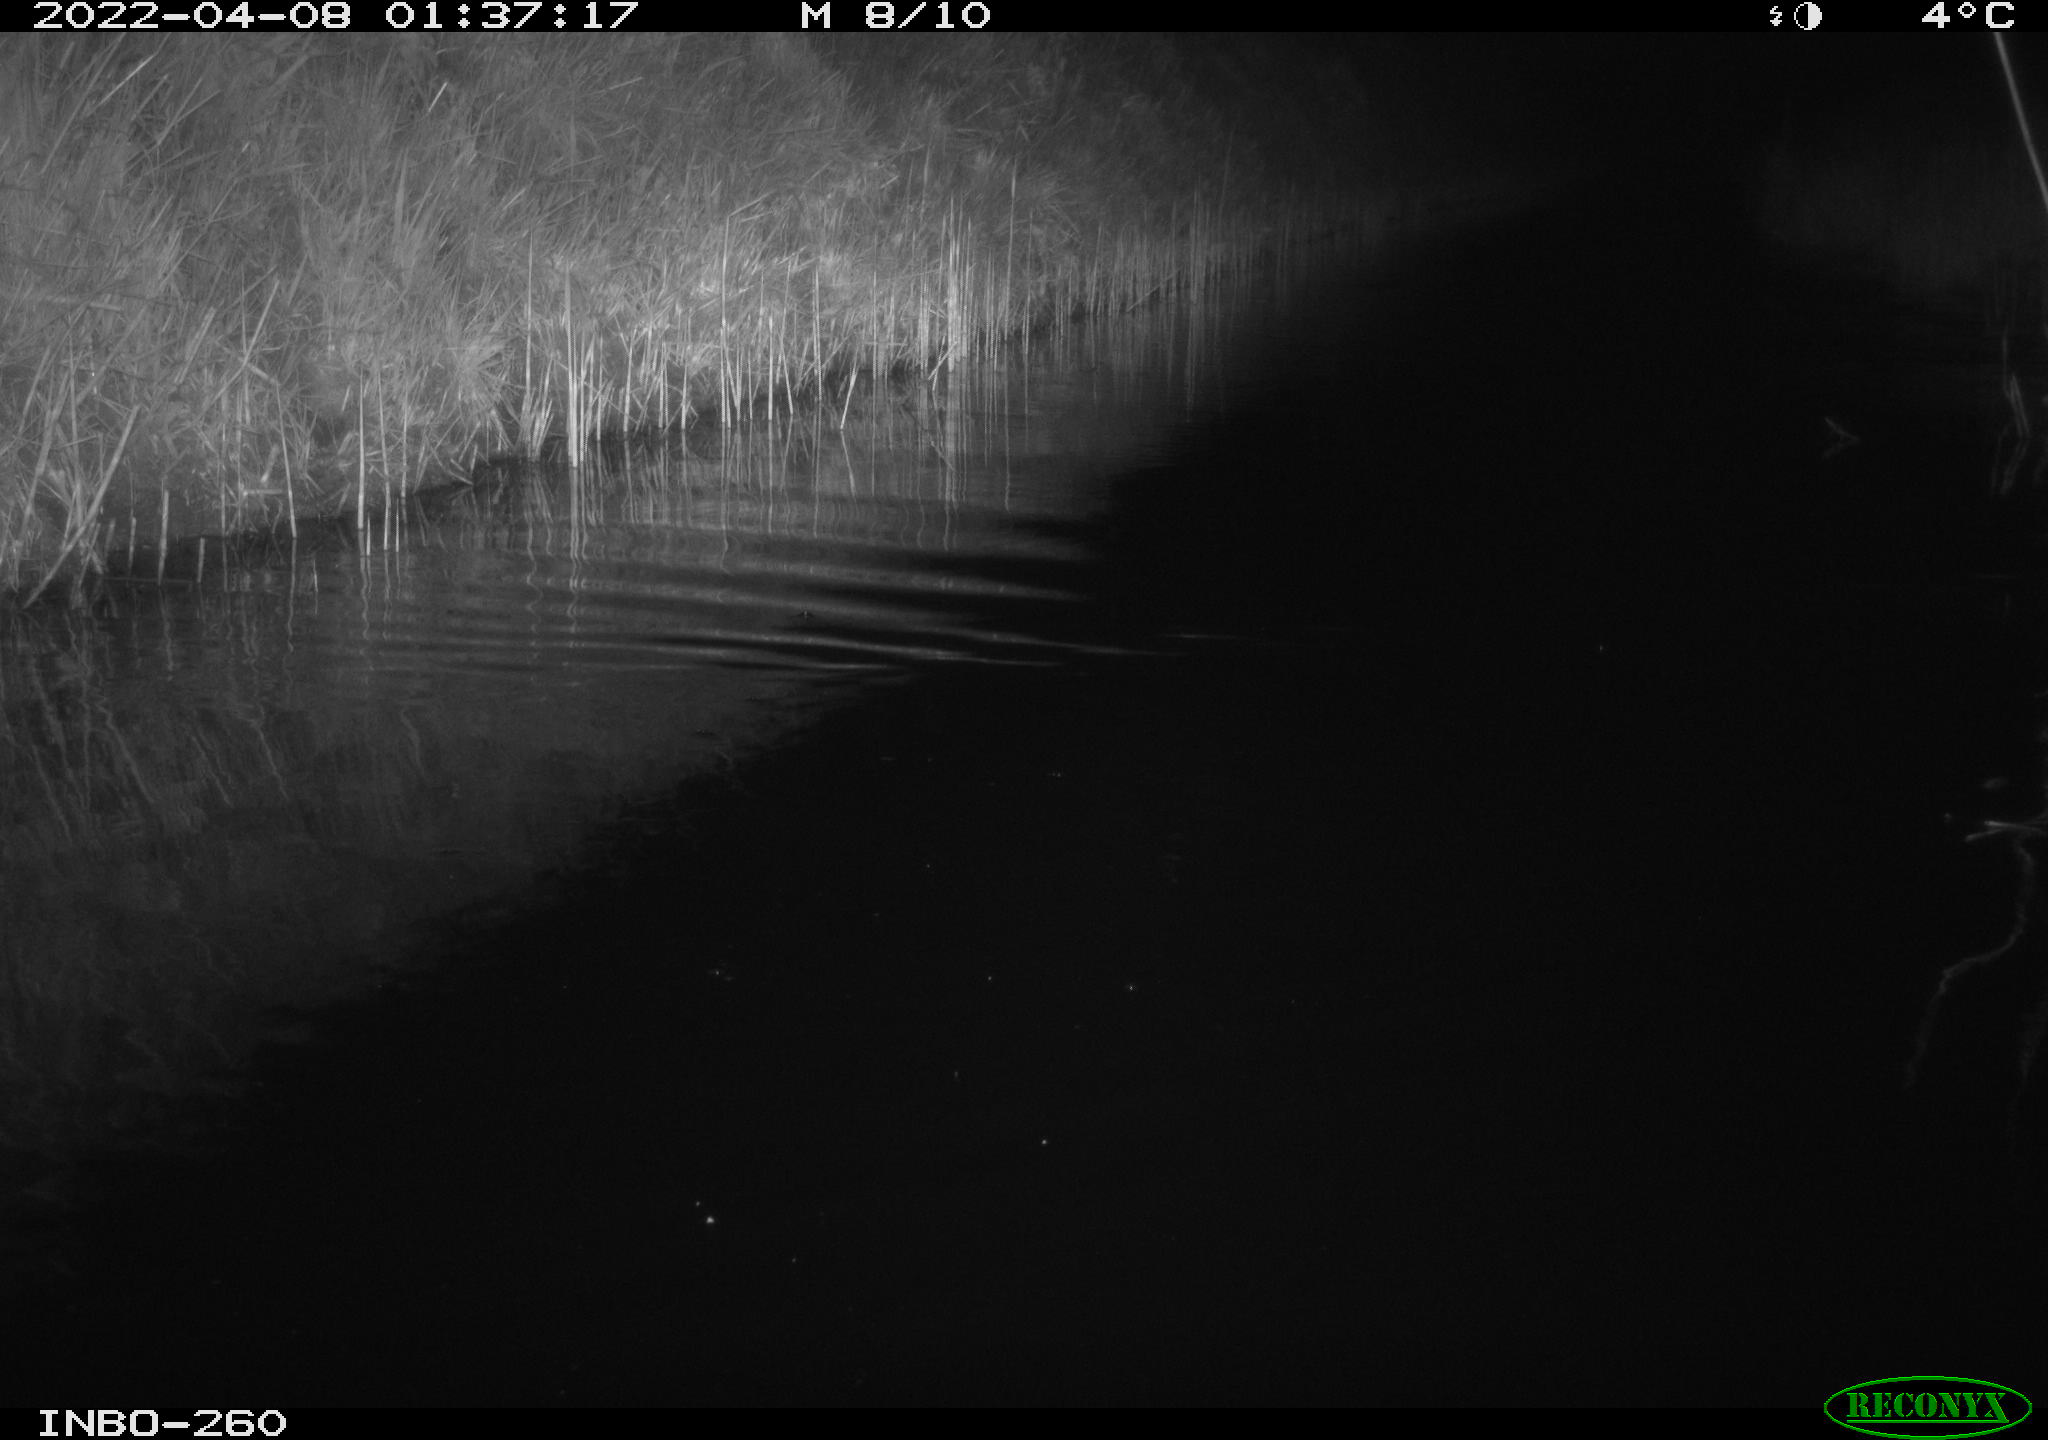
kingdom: Animalia
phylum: Chordata
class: Mammalia
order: Rodentia
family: Muridae
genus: Rattus
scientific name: Rattus norvegicus
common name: Brown rat
